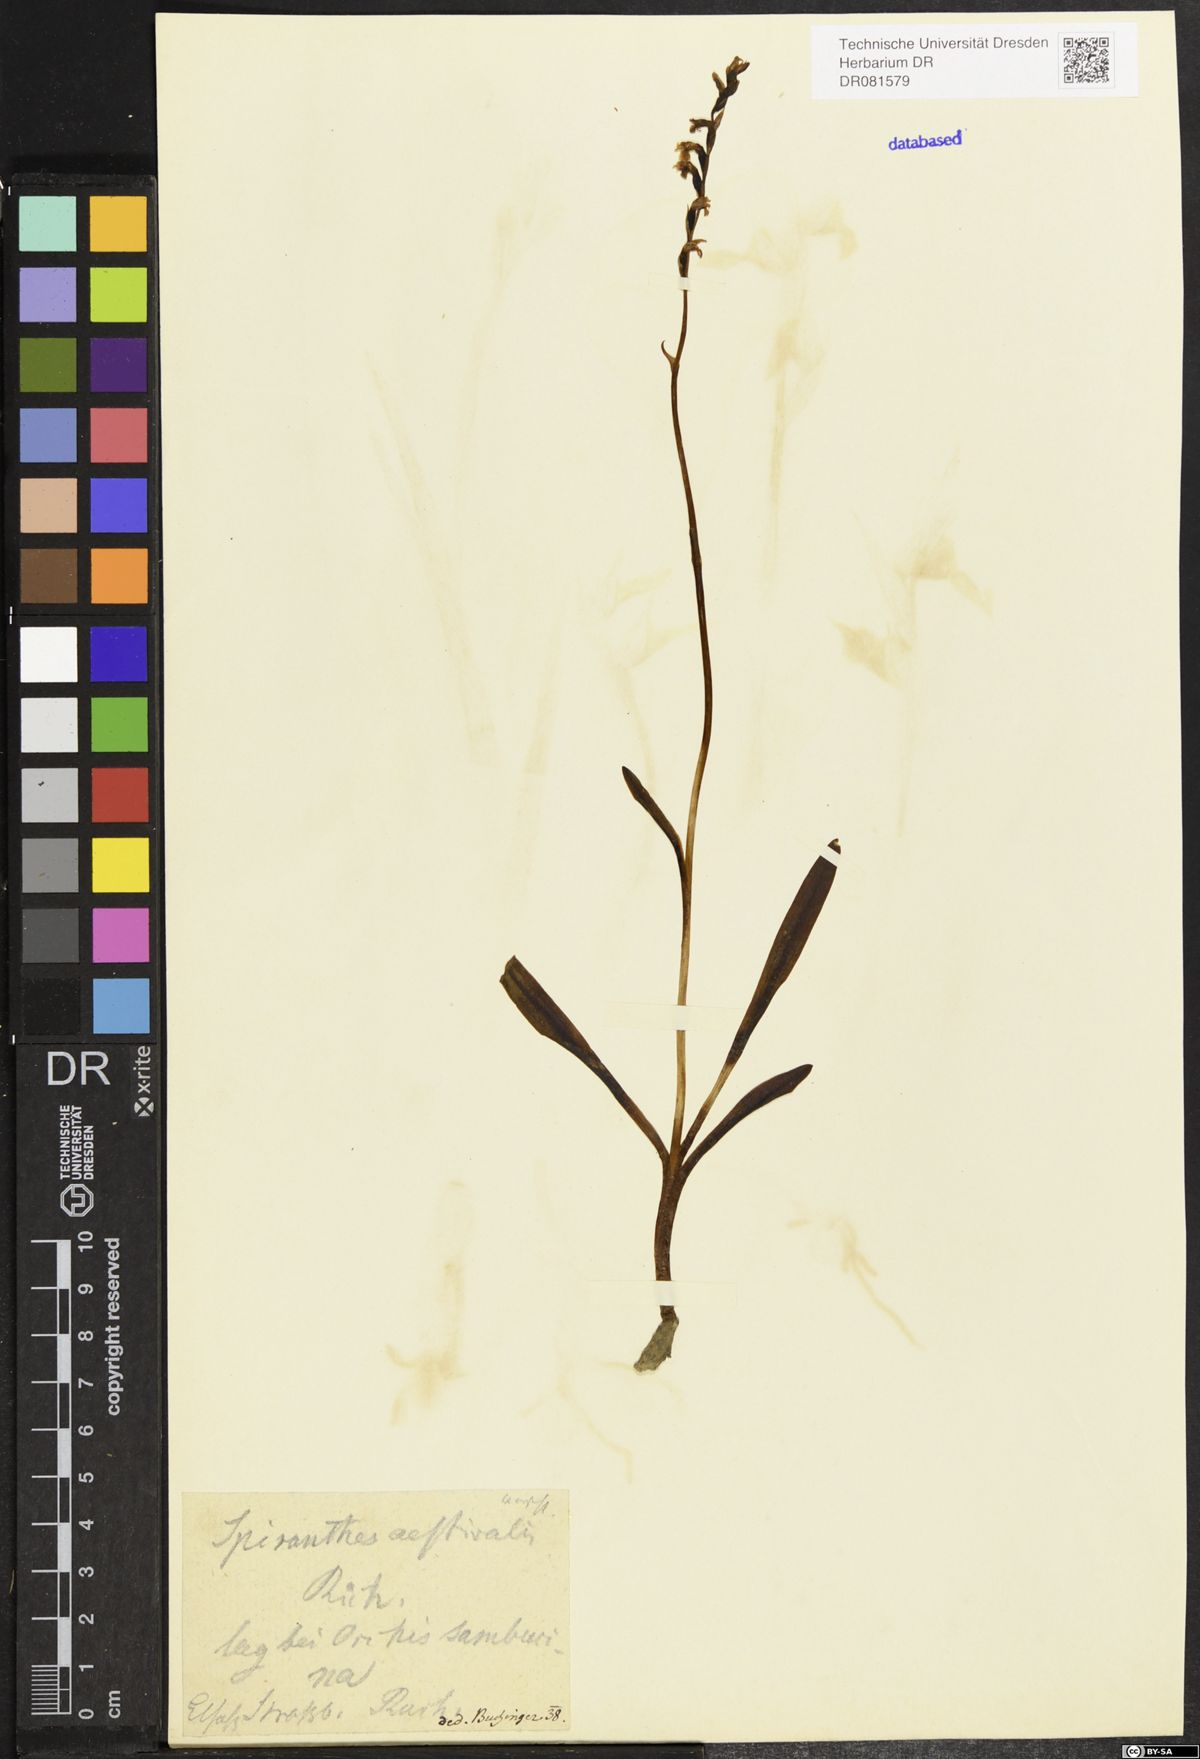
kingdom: Plantae
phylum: Tracheophyta
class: Liliopsida
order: Asparagales
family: Orchidaceae
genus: Spiranthes
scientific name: Spiranthes aestivalis
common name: Summer lady's-tresses
